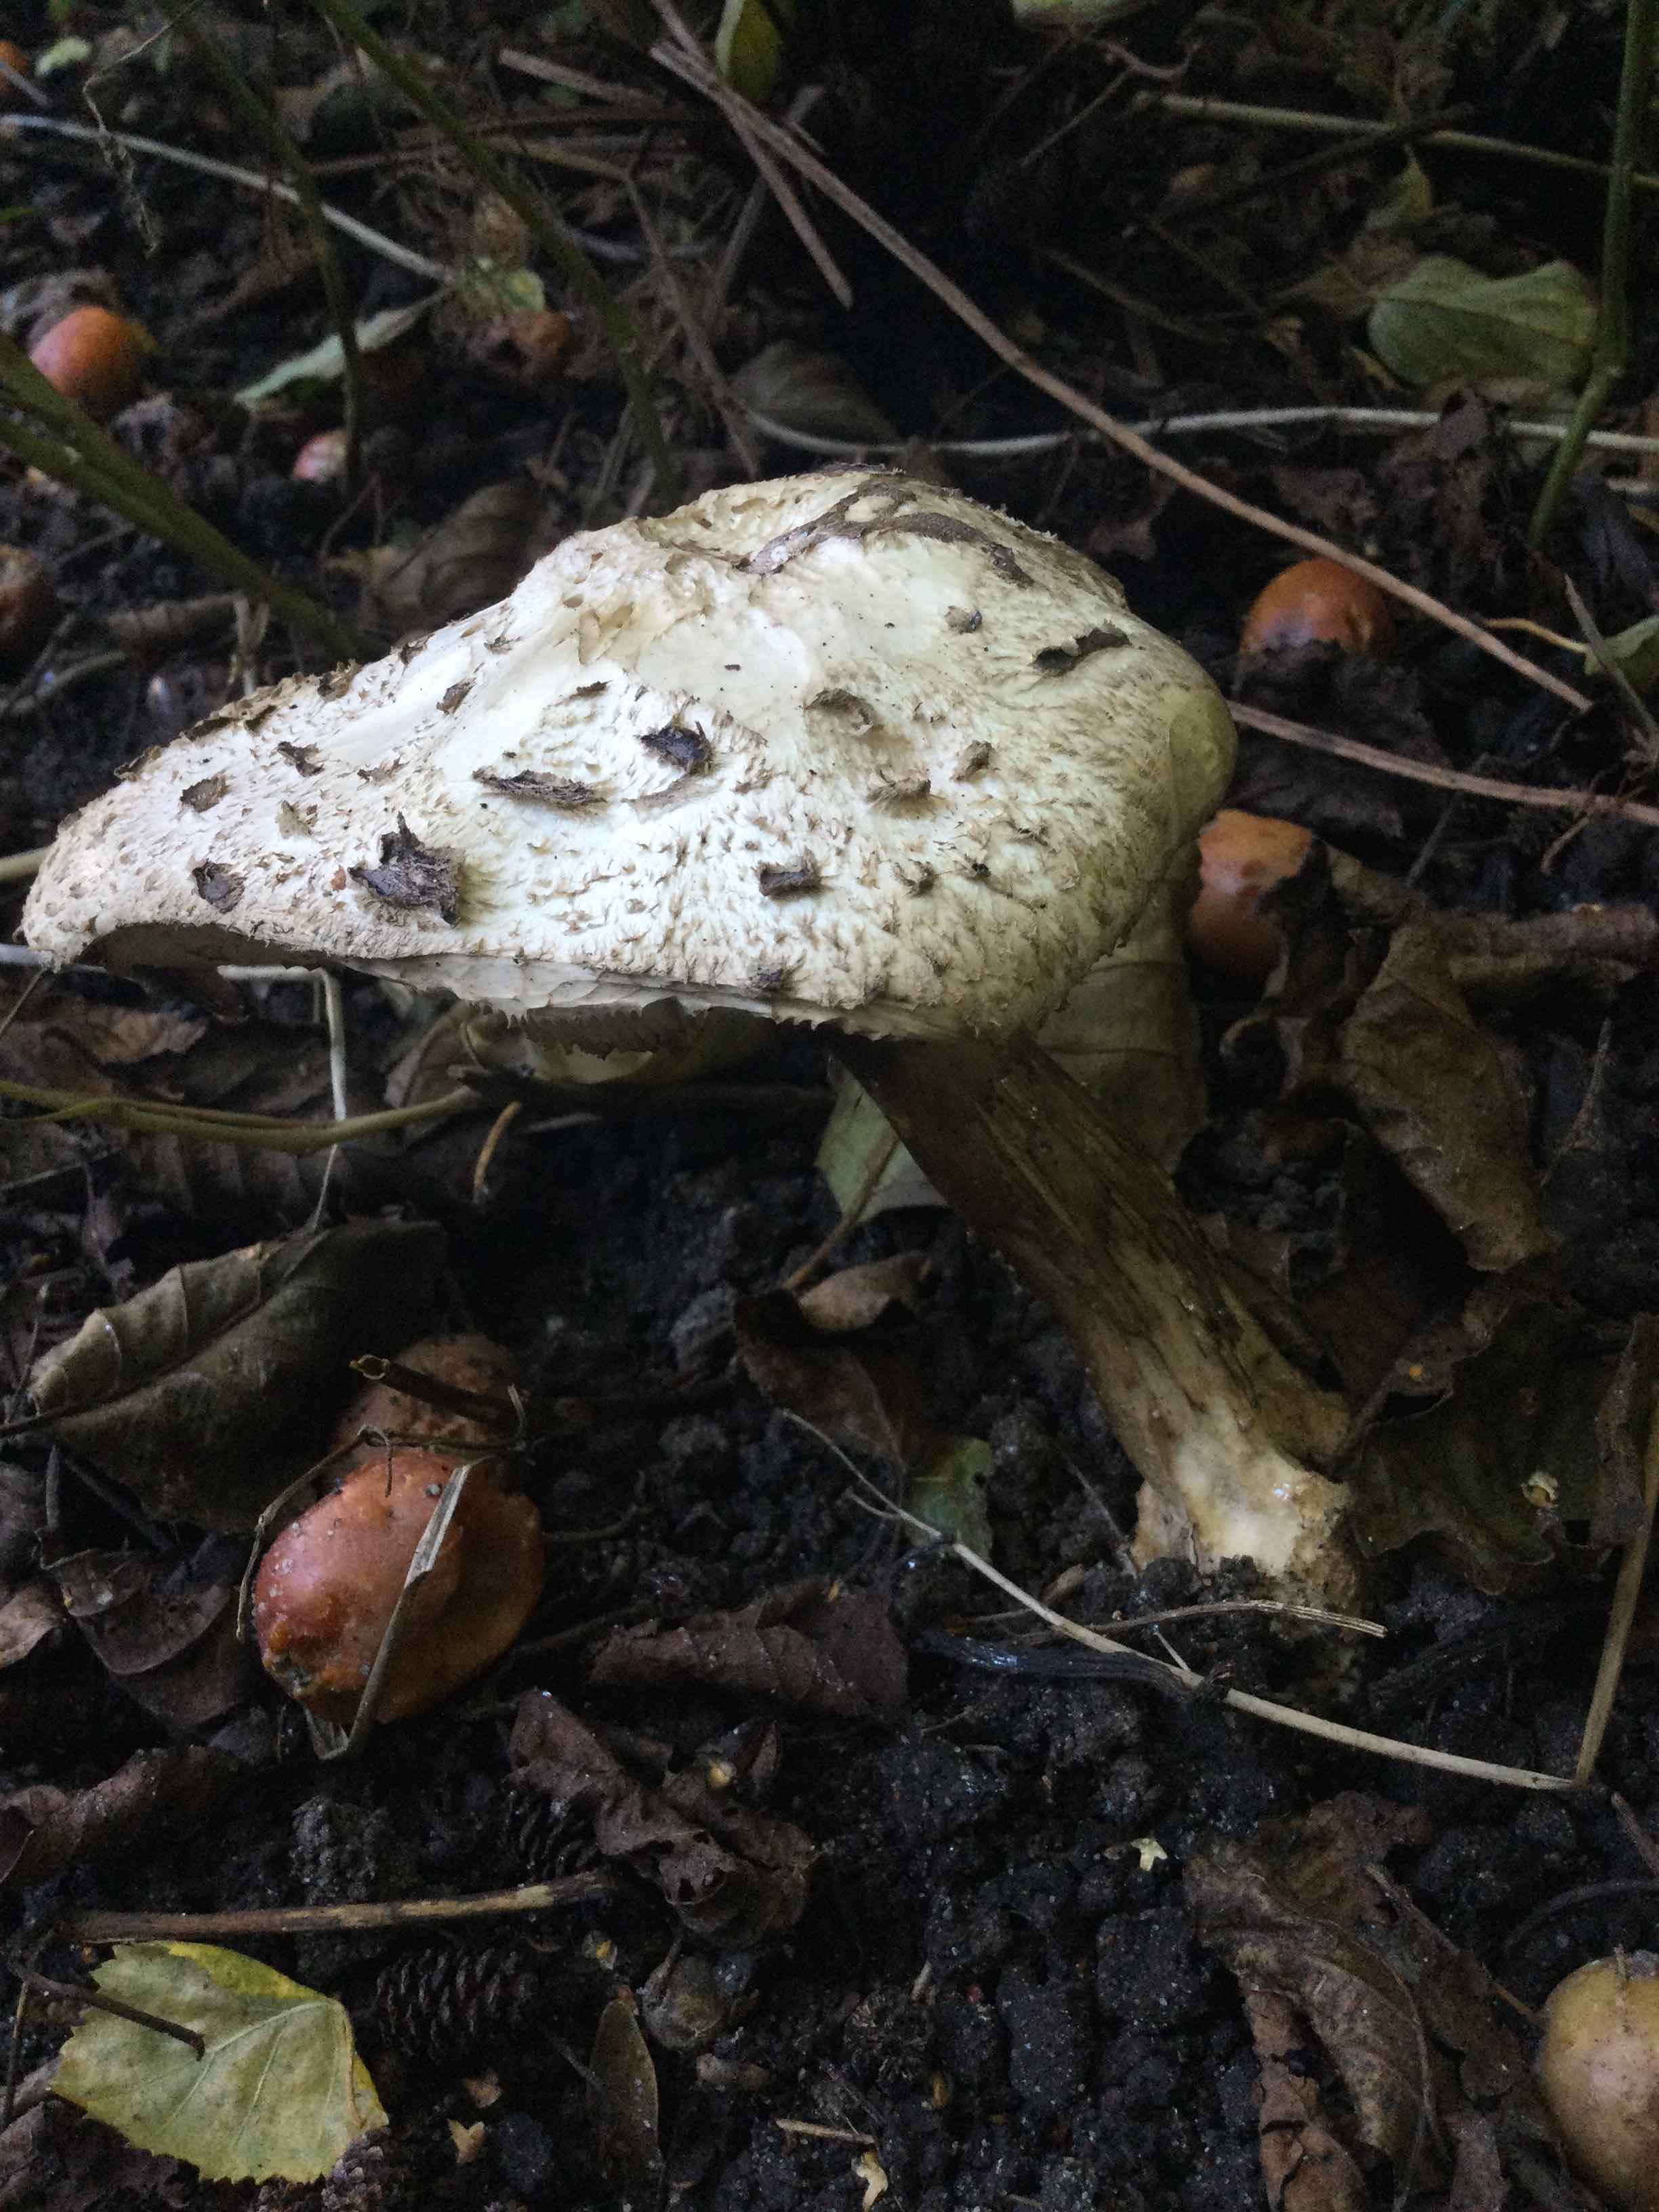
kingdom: Fungi
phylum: Basidiomycota
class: Agaricomycetes
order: Agaricales
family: Agaricaceae
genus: Chlorophyllum
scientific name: Chlorophyllum
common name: rabarberhat
